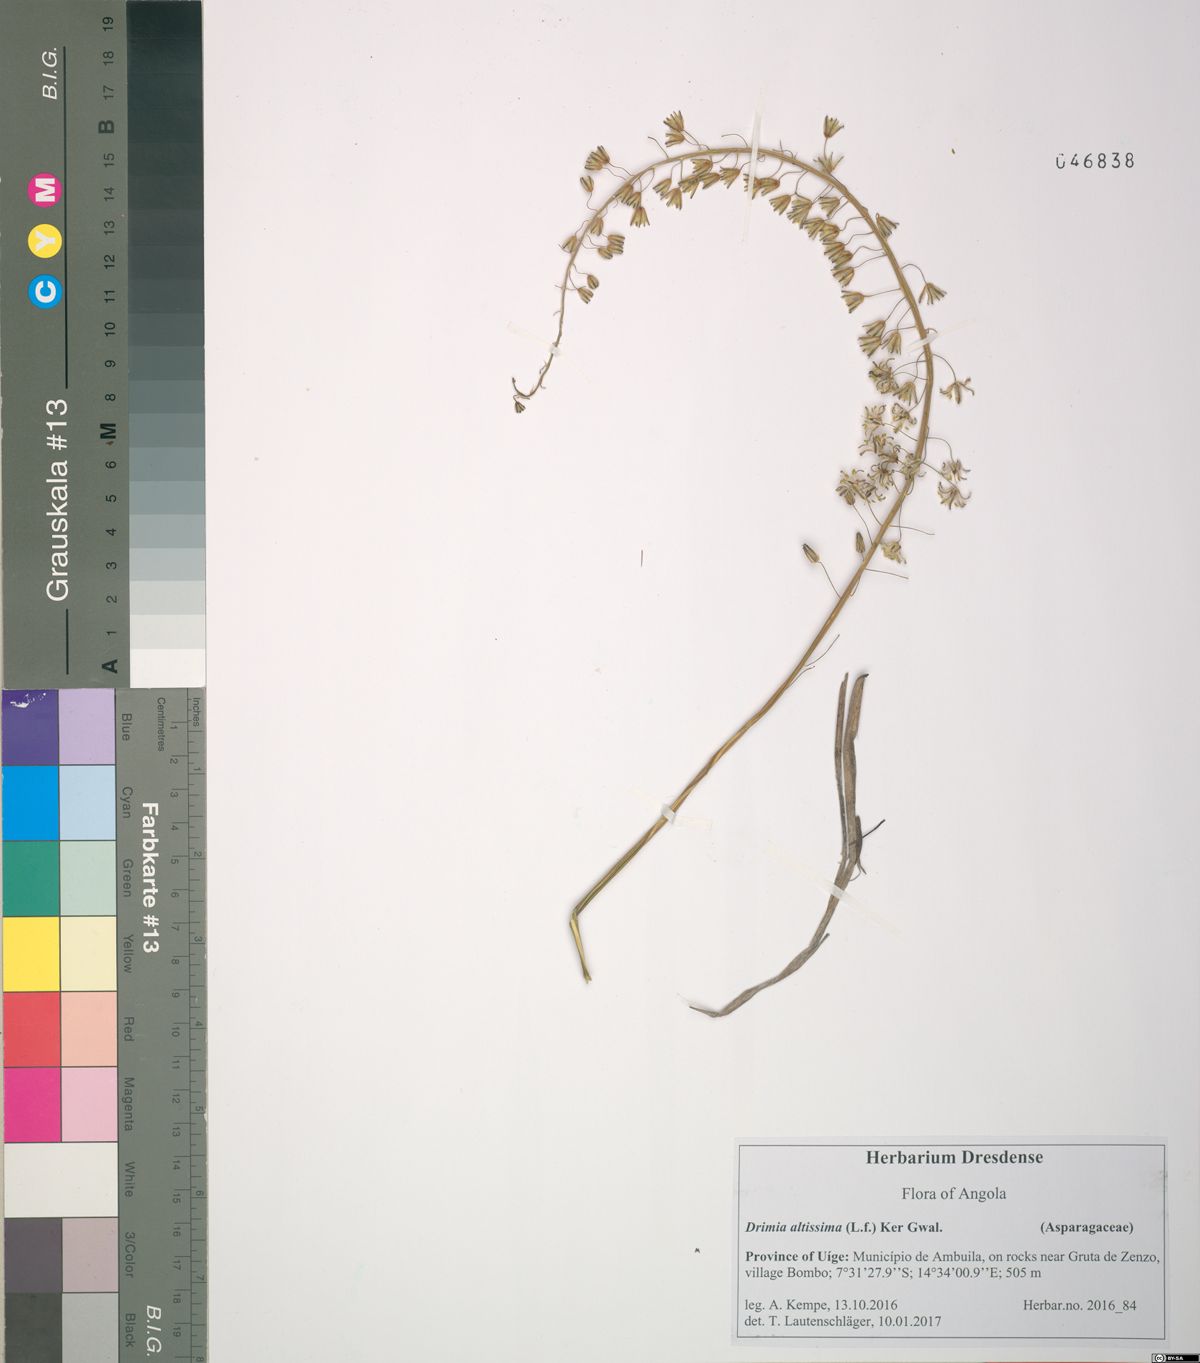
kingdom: Plantae
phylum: Tracheophyta
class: Liliopsida
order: Asparagales
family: Asparagaceae
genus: Drimia
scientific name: Drimia altissima
